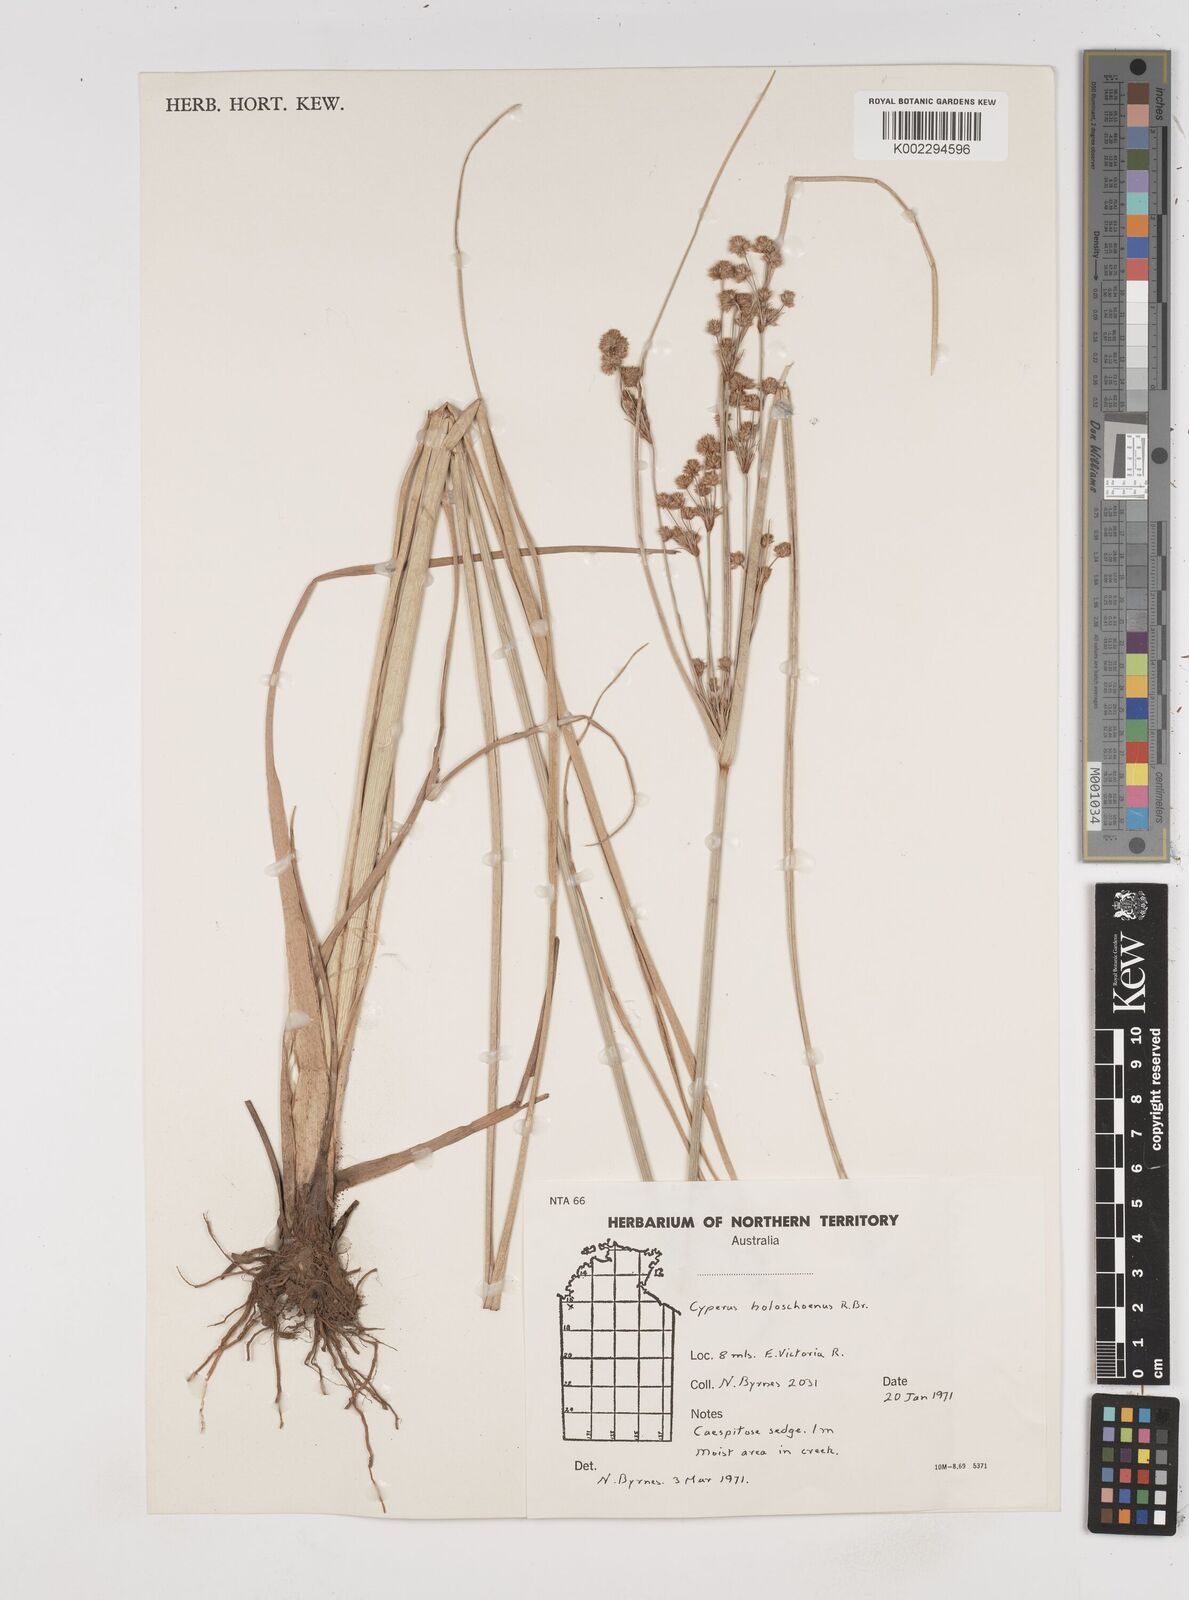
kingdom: Plantae
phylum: Tracheophyta
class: Liliopsida
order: Poales
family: Cyperaceae
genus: Cyperus
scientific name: Cyperus holoschoenus
